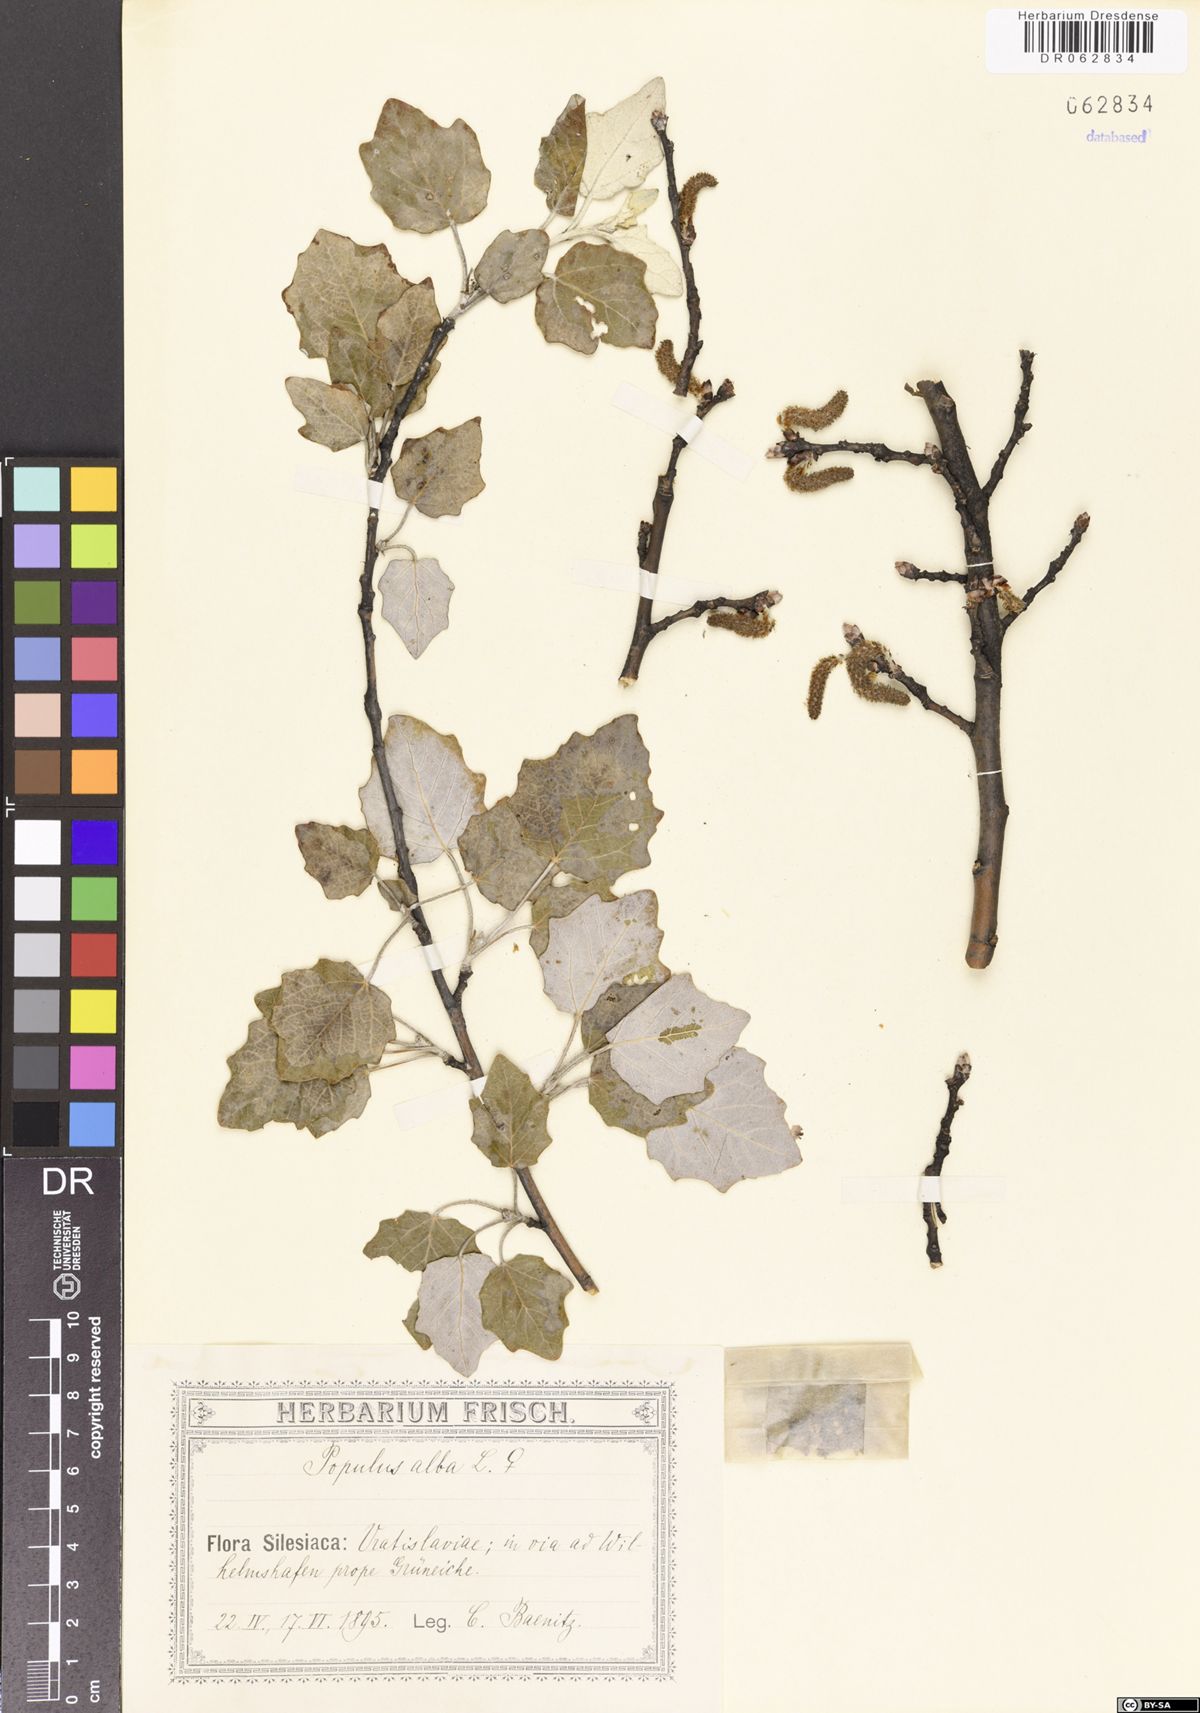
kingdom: Plantae
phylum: Tracheophyta
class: Magnoliopsida
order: Malpighiales
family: Salicaceae
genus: Populus
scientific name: Populus alba
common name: White poplar
